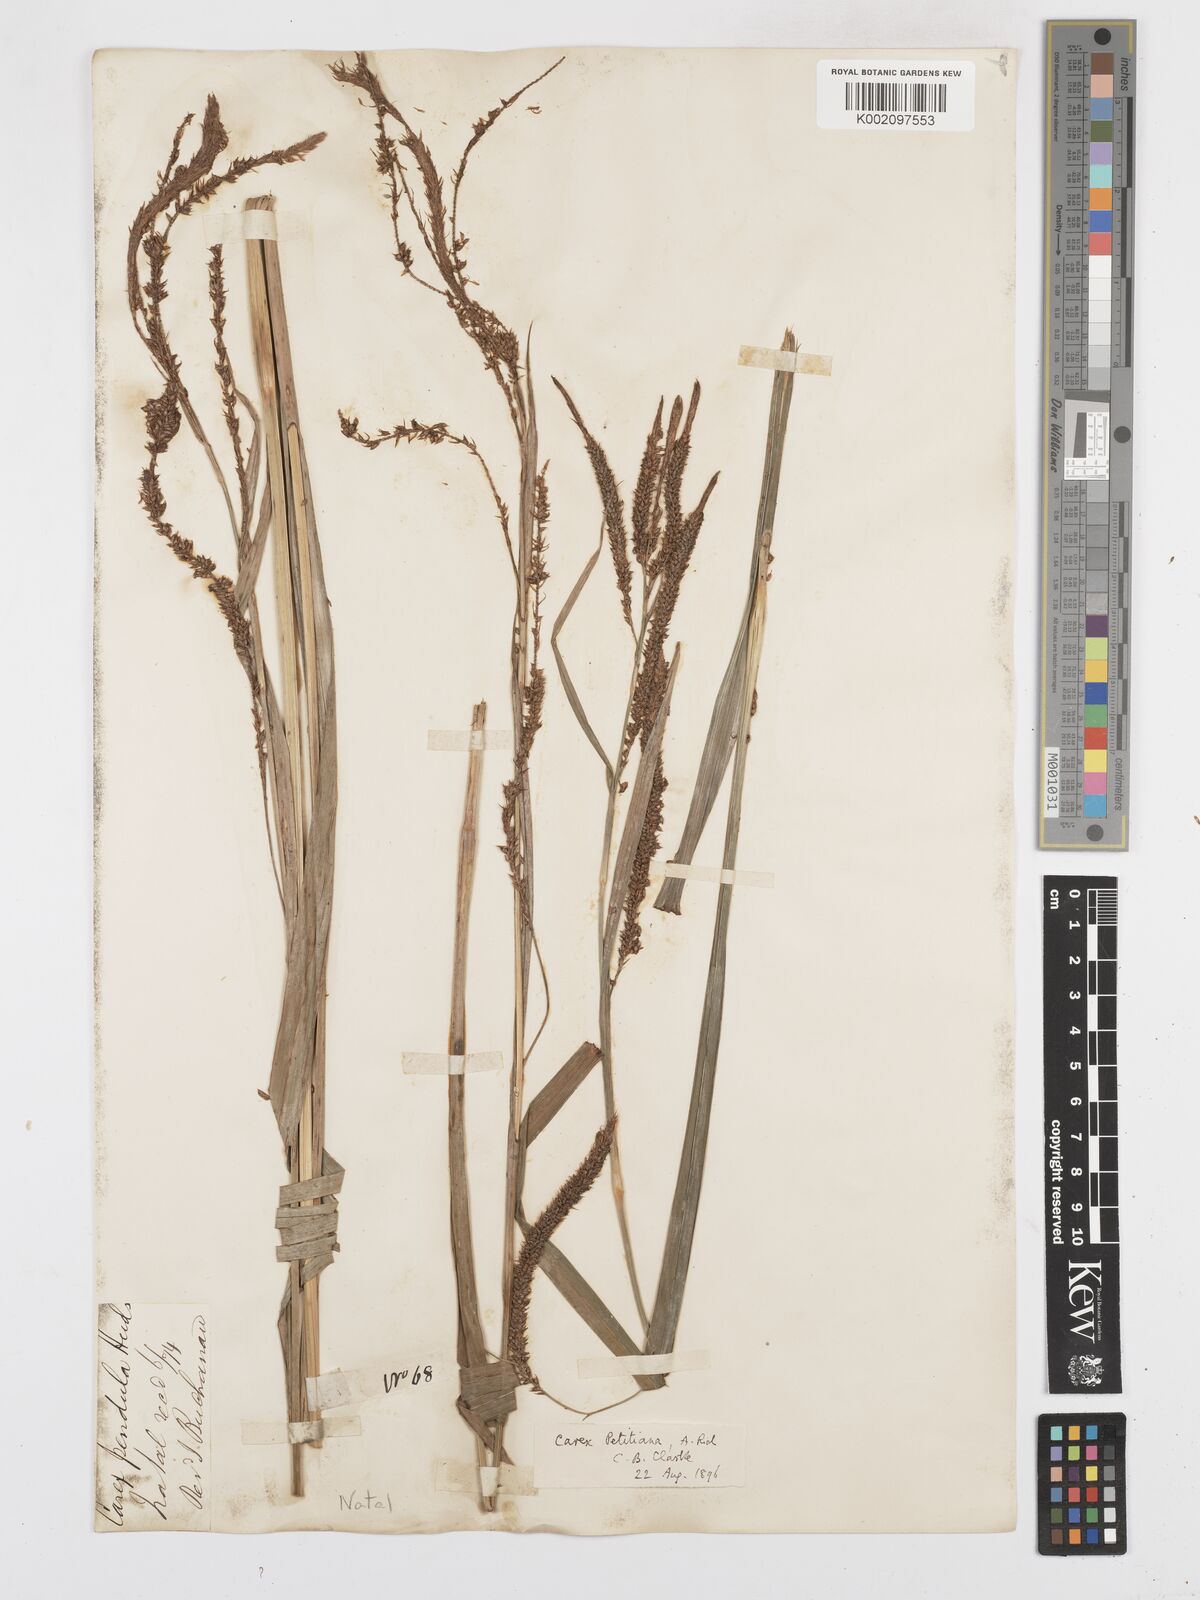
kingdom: Plantae
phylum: Tracheophyta
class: Liliopsida
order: Poales
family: Cyperaceae
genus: Carex
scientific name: Carex petitiana
